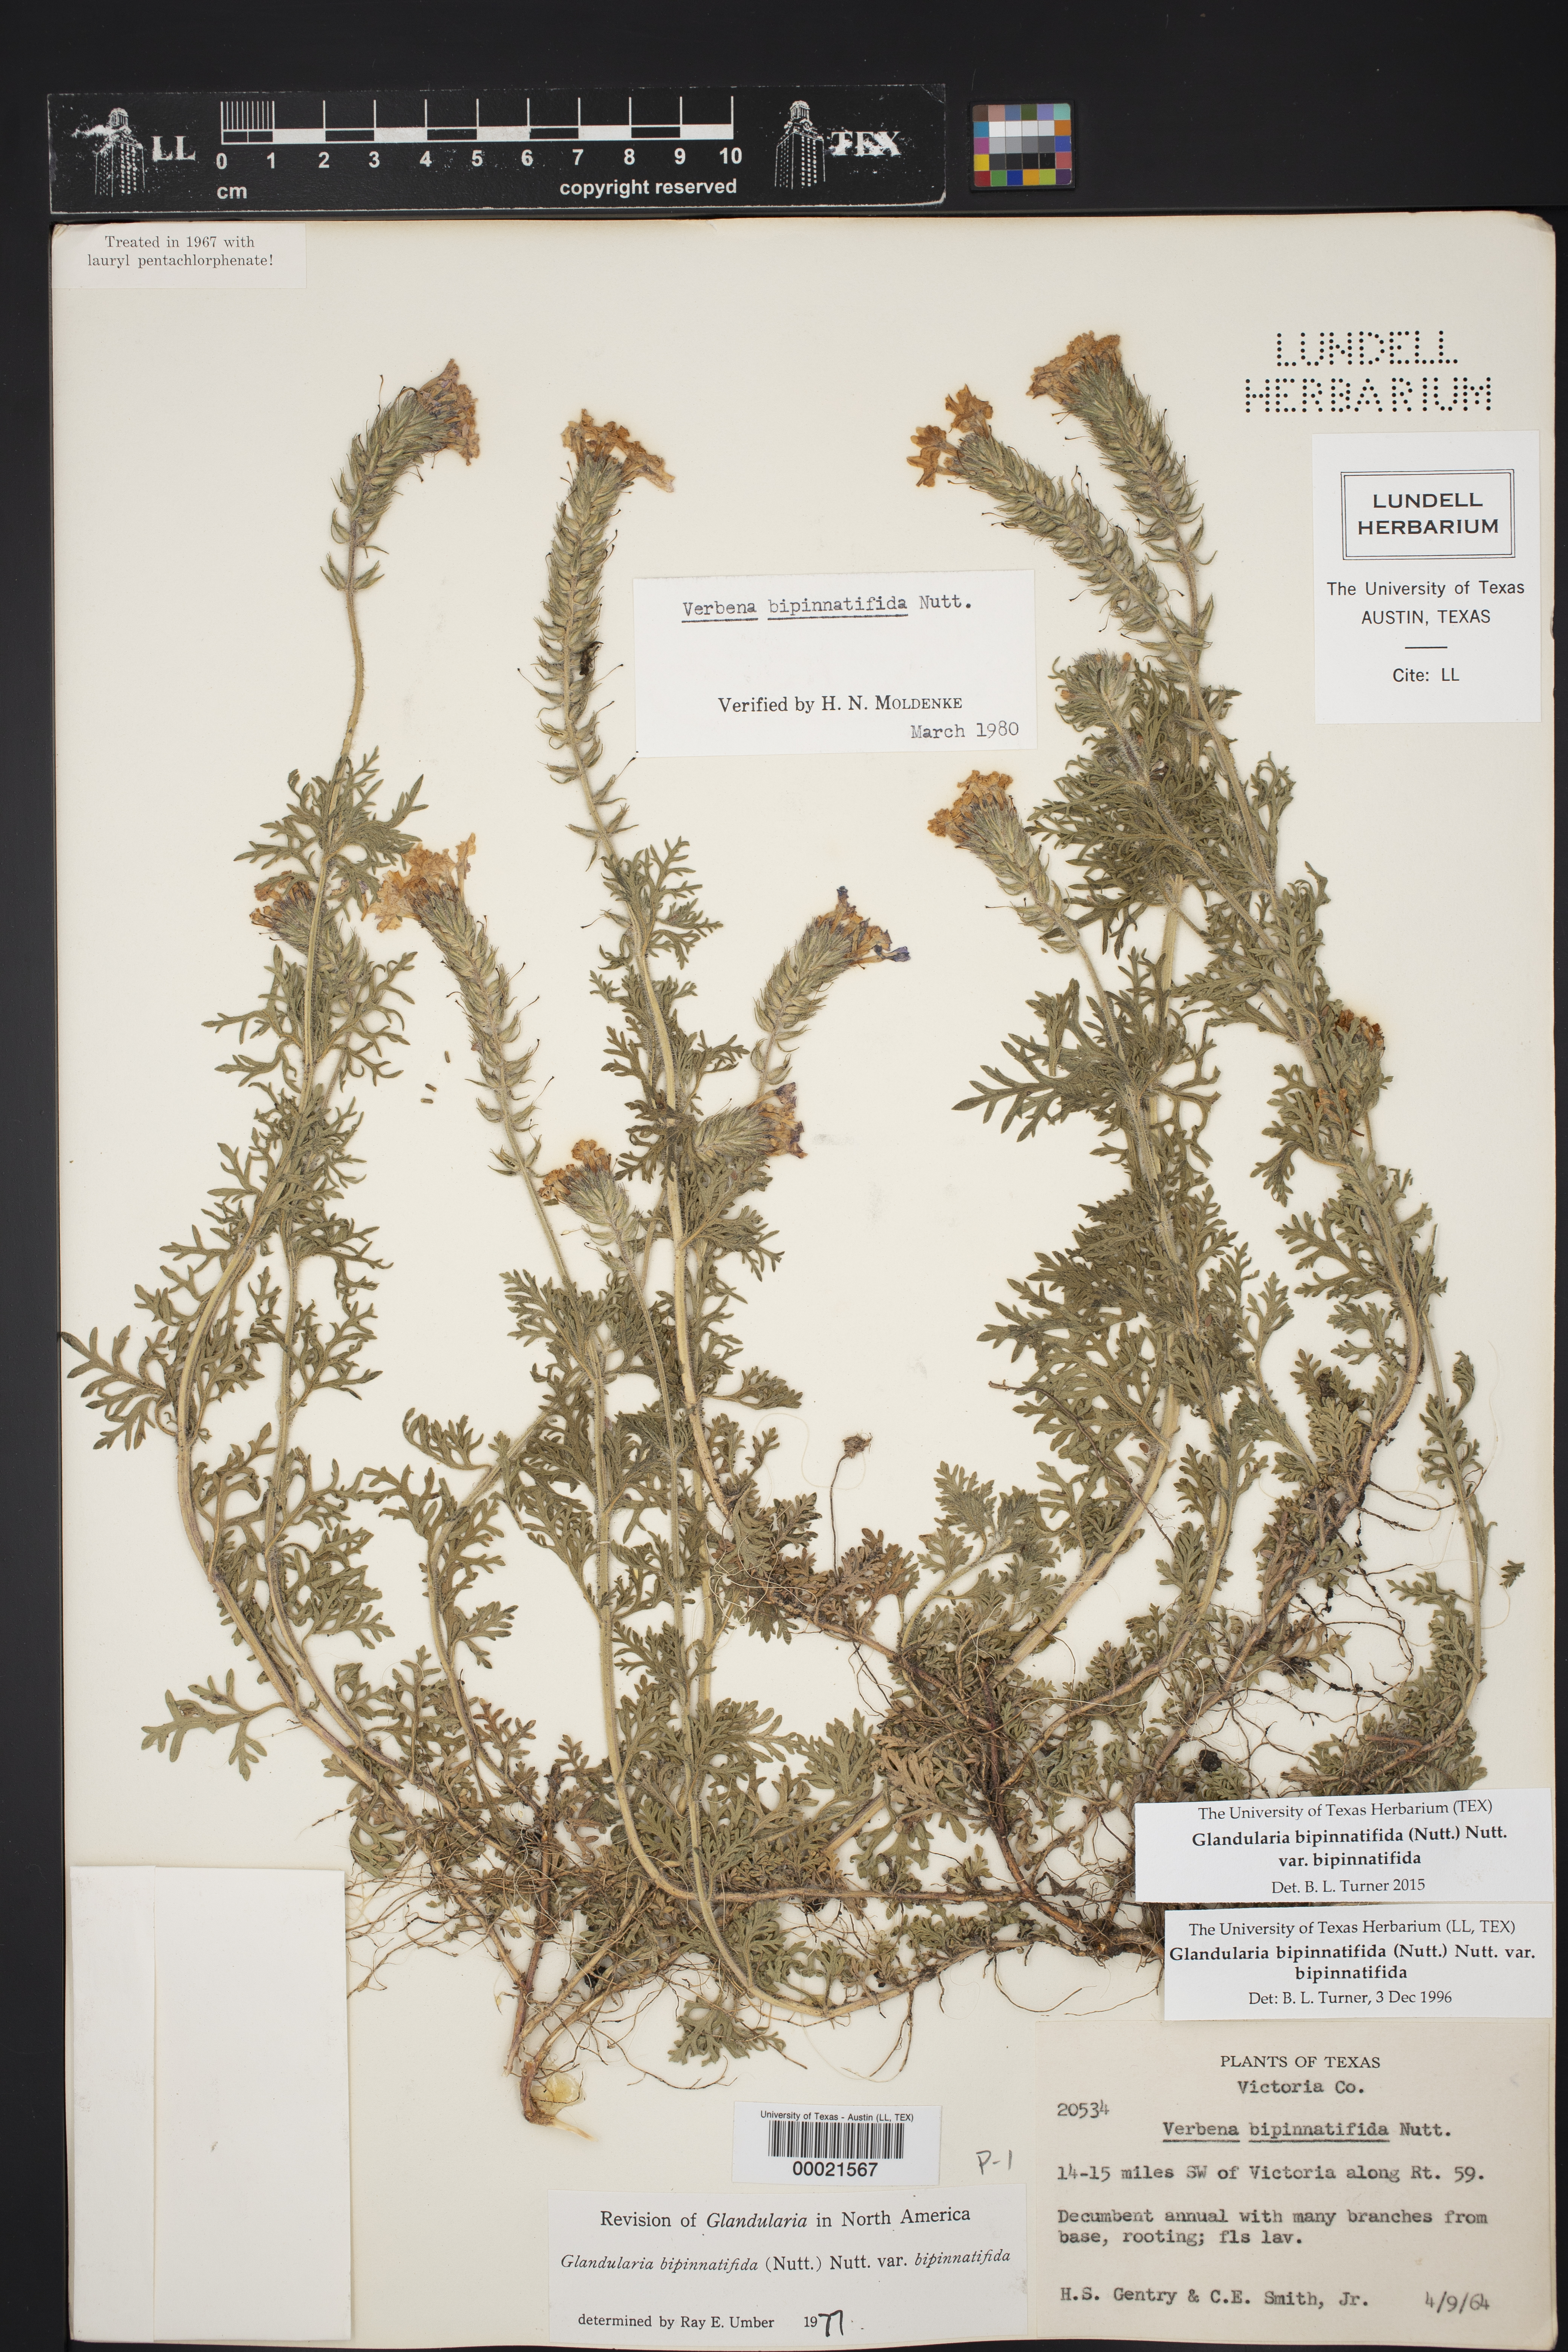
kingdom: Plantae
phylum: Tracheophyta
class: Magnoliopsida
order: Lamiales
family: Verbenaceae
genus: Verbena
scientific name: Verbena bipinnatifida
